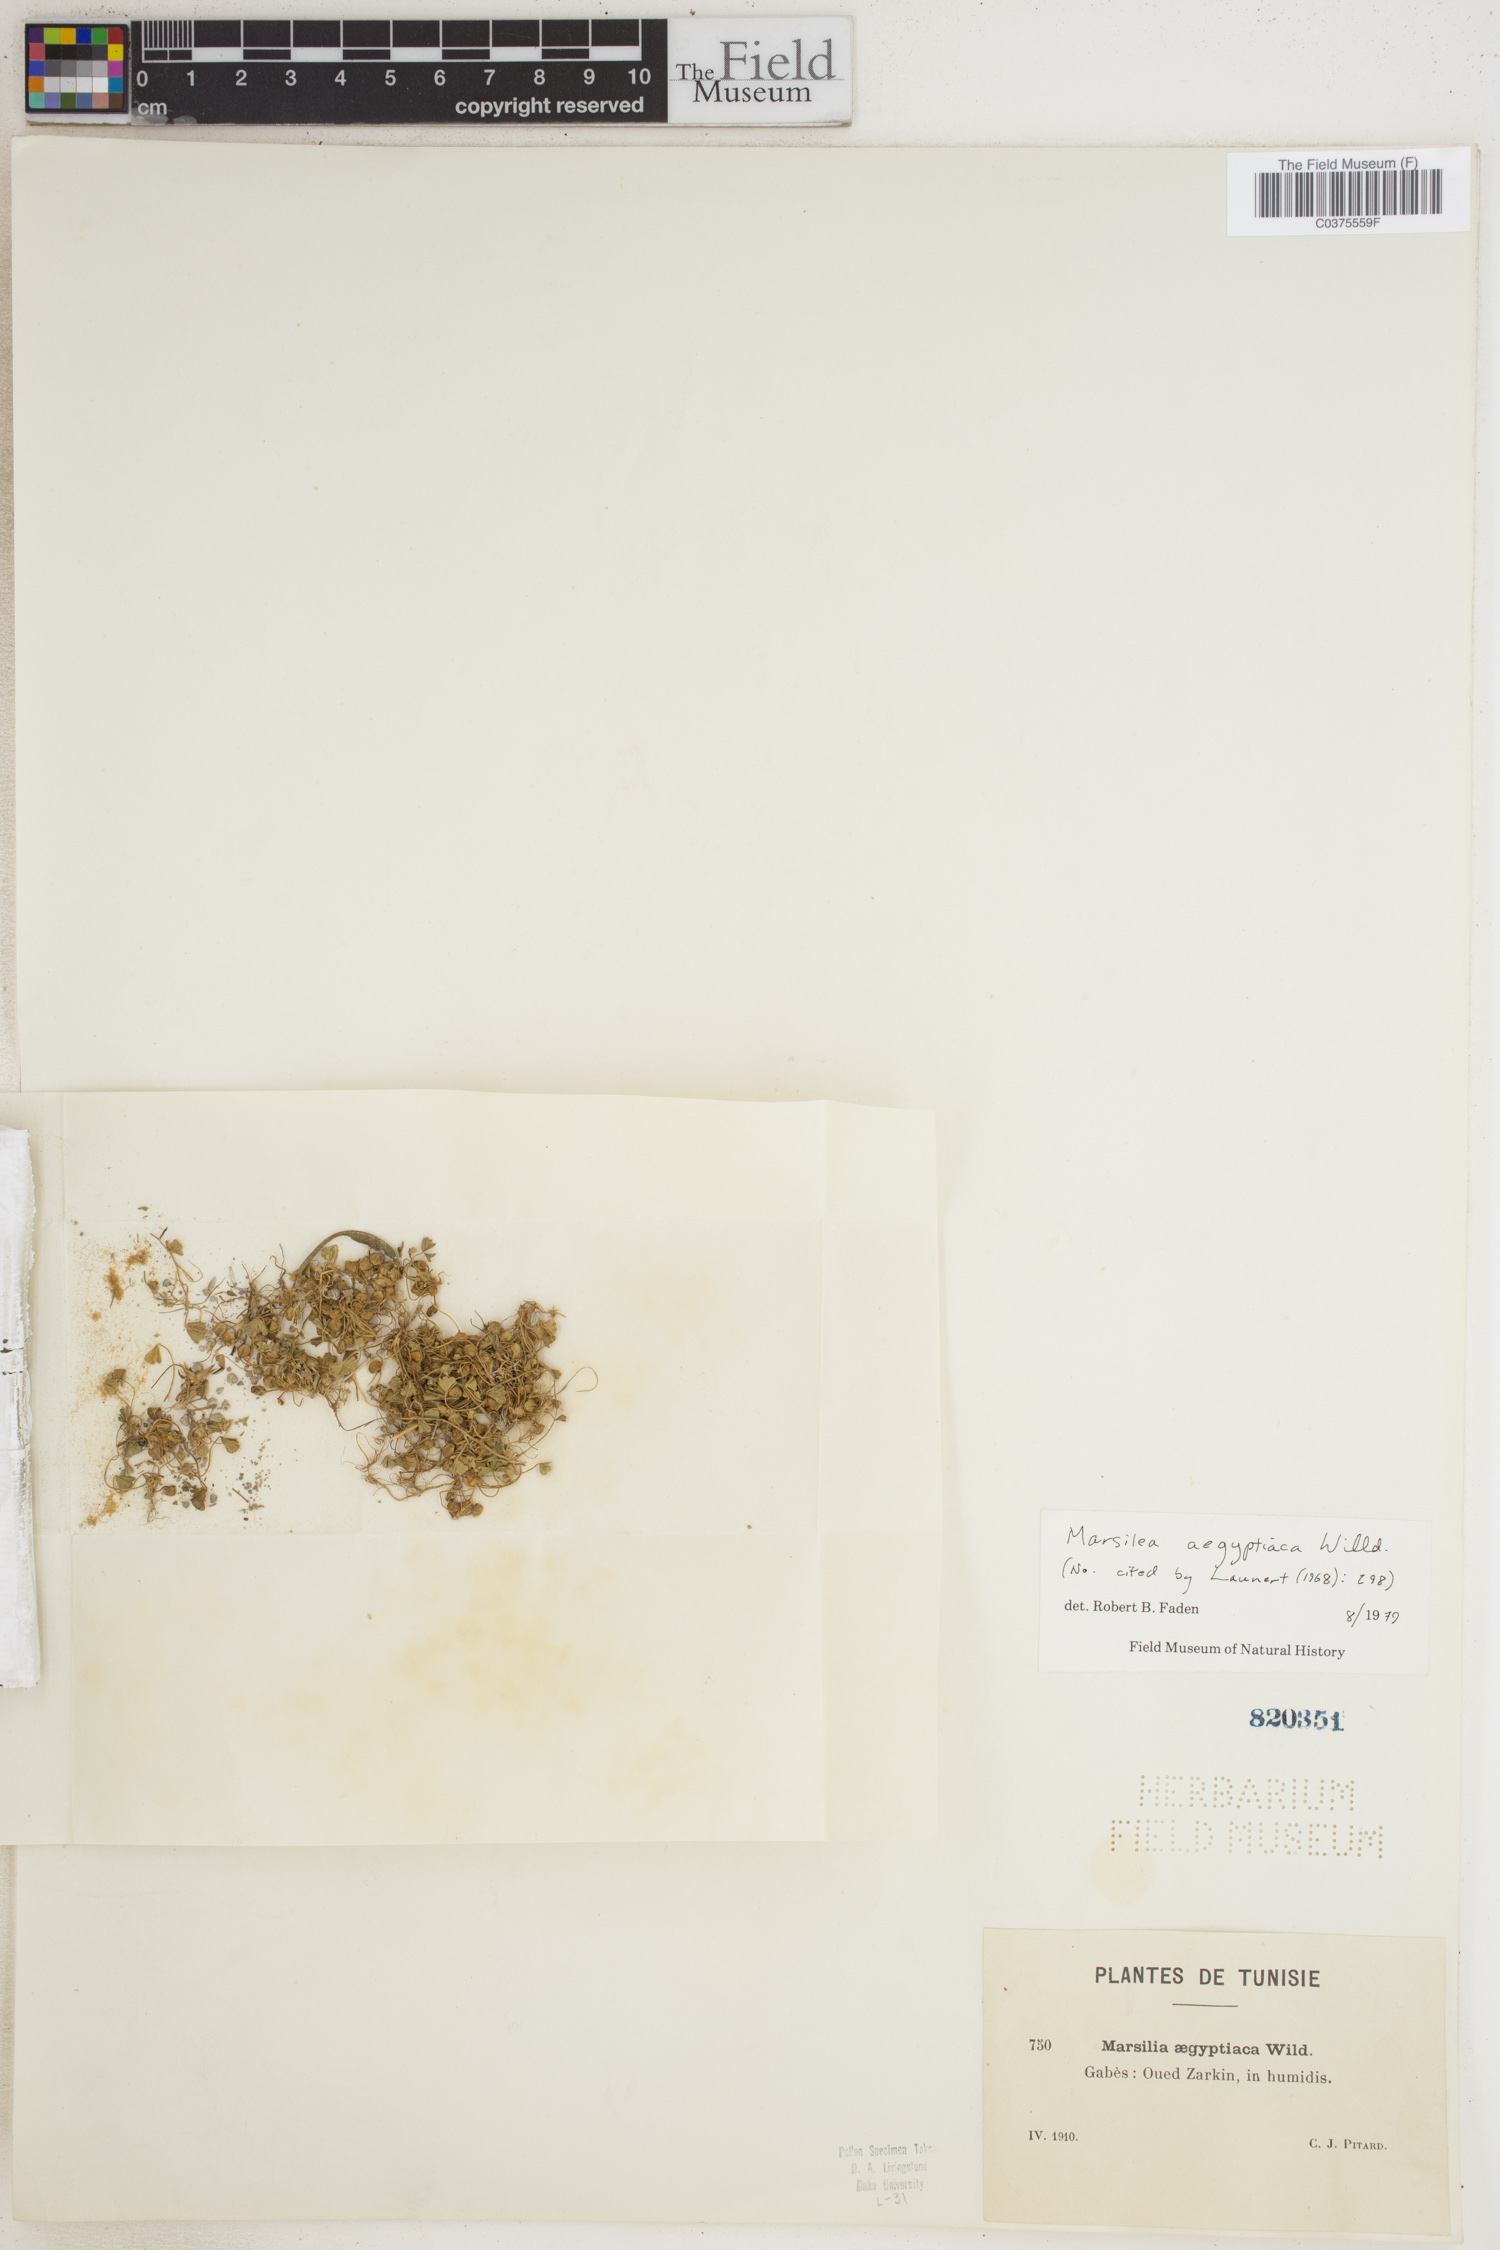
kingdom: Plantae
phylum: Tracheophyta
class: Polypodiopsida
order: Salviniales
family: Marsileaceae
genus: Marsilea
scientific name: Marsilea aegyptica
